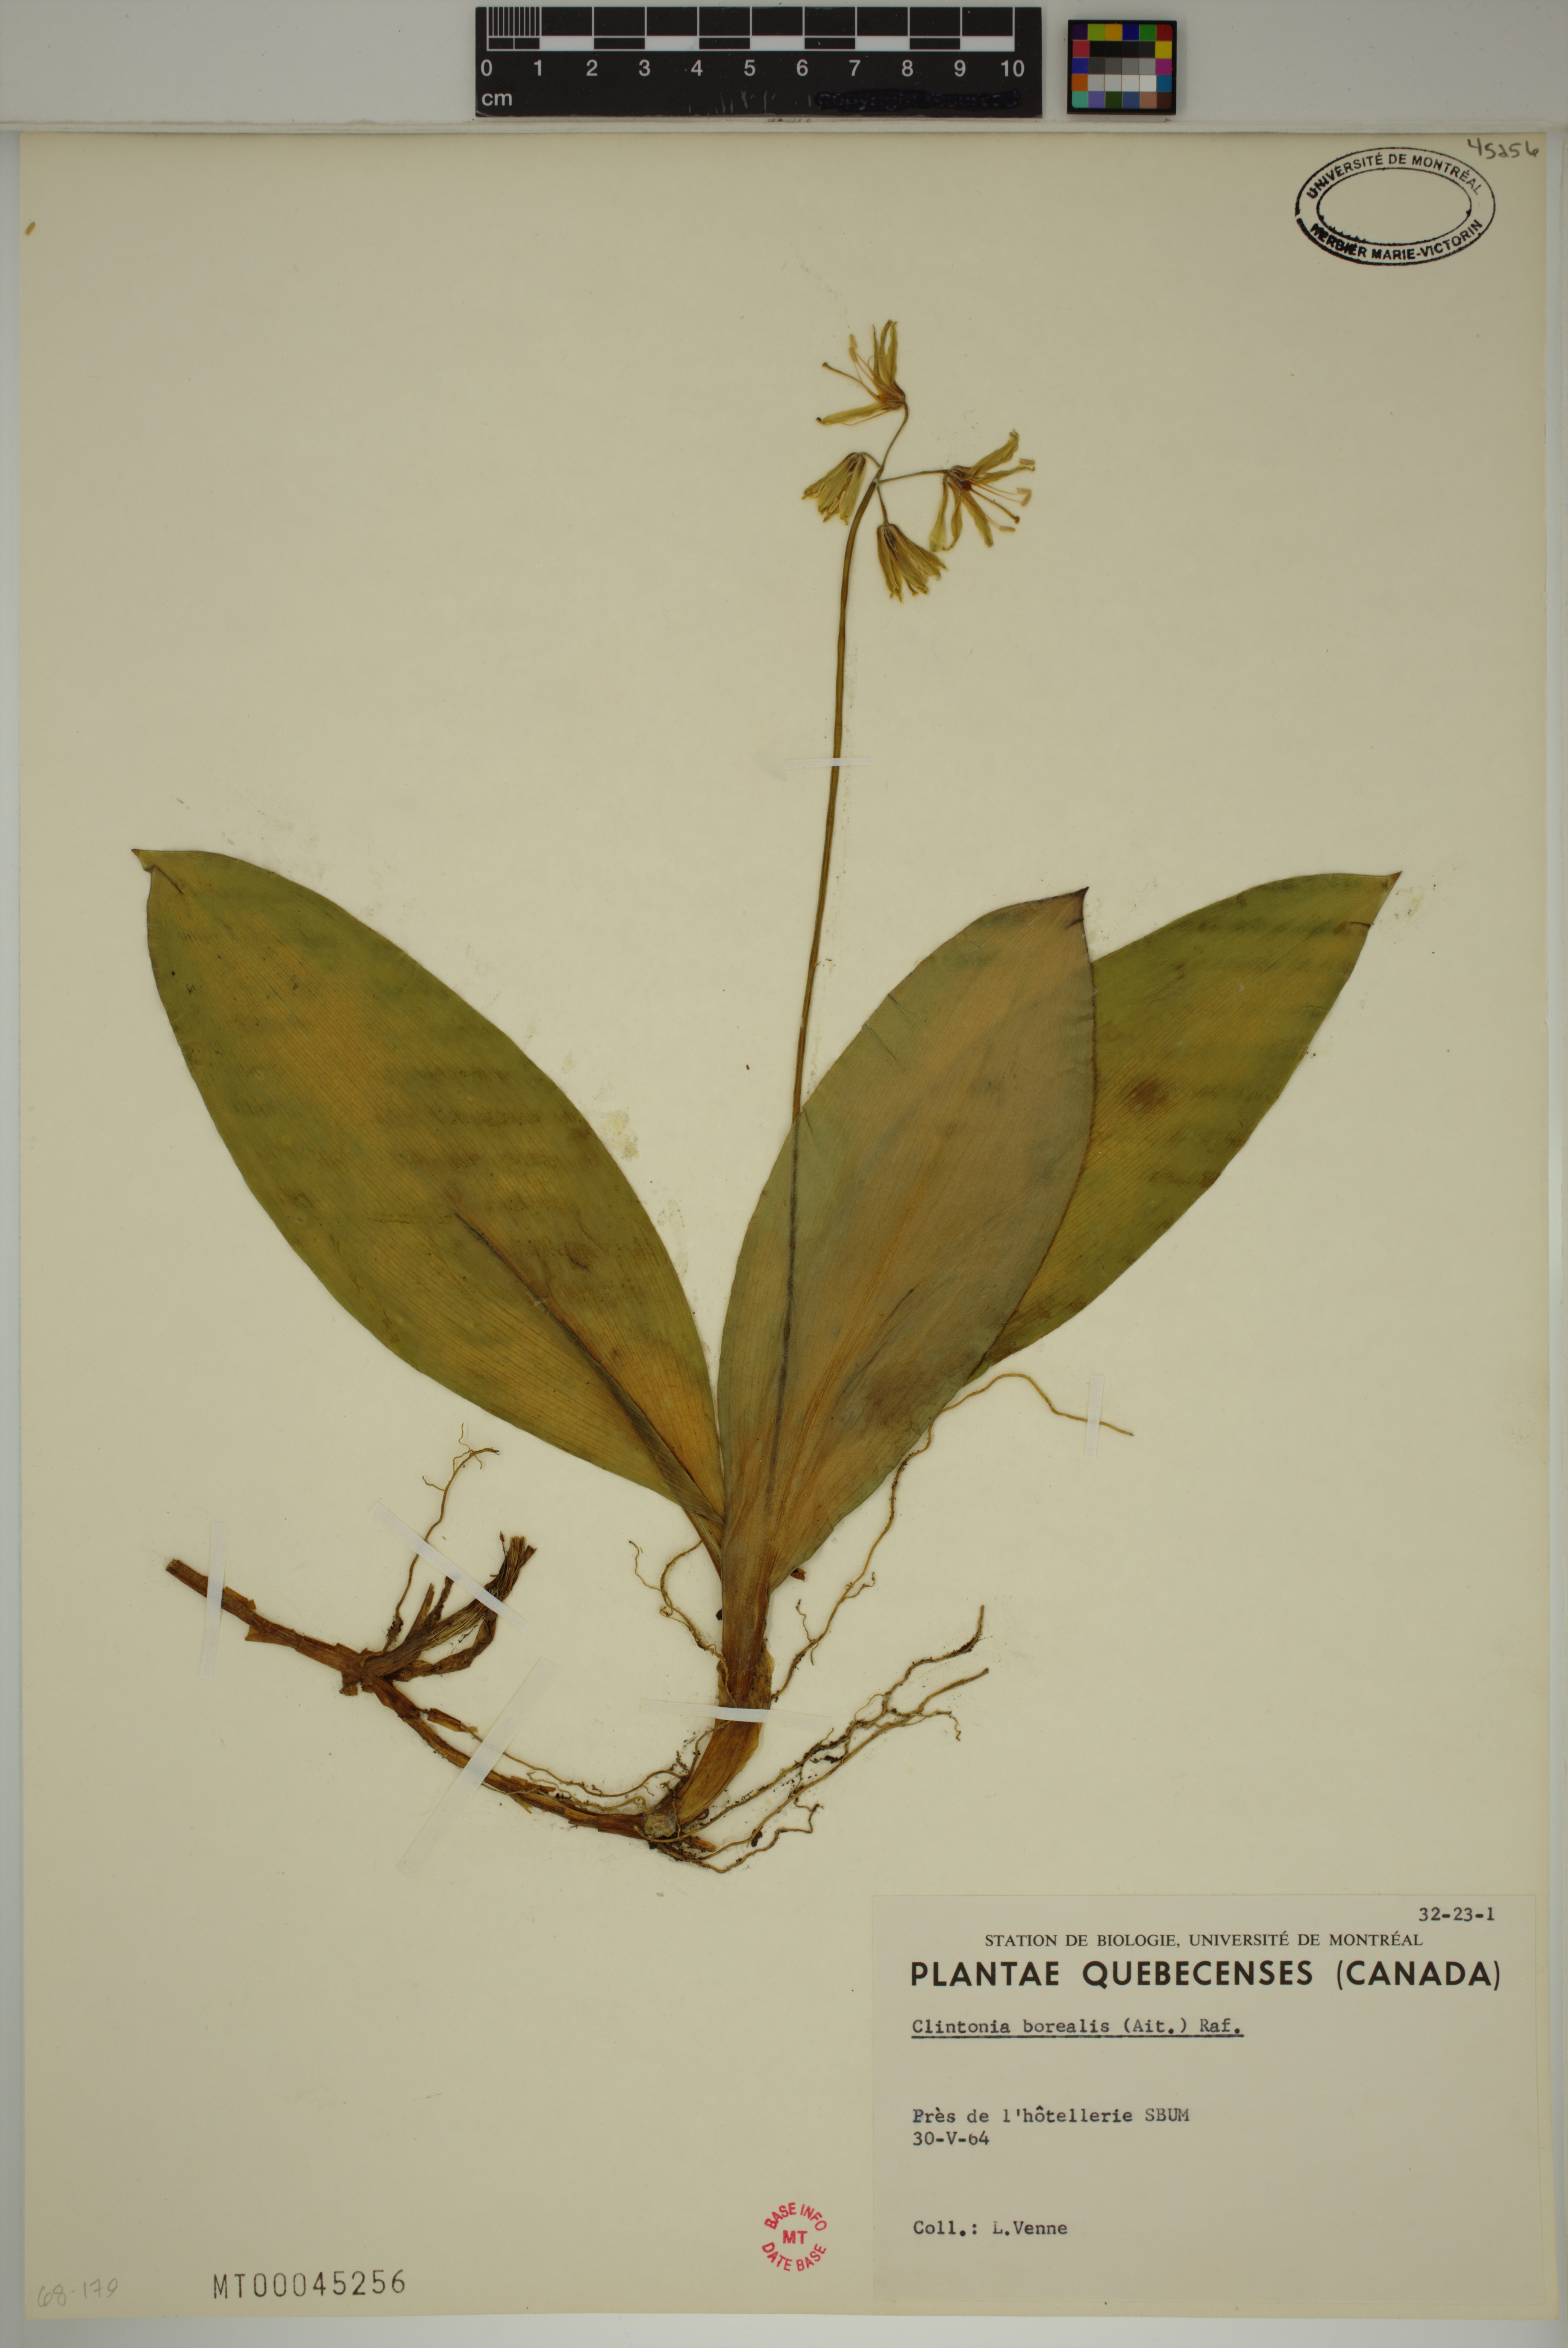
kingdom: Plantae
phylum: Tracheophyta
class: Liliopsida
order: Liliales
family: Liliaceae
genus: Clintonia
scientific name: Clintonia borealis
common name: Yellow clintonia
